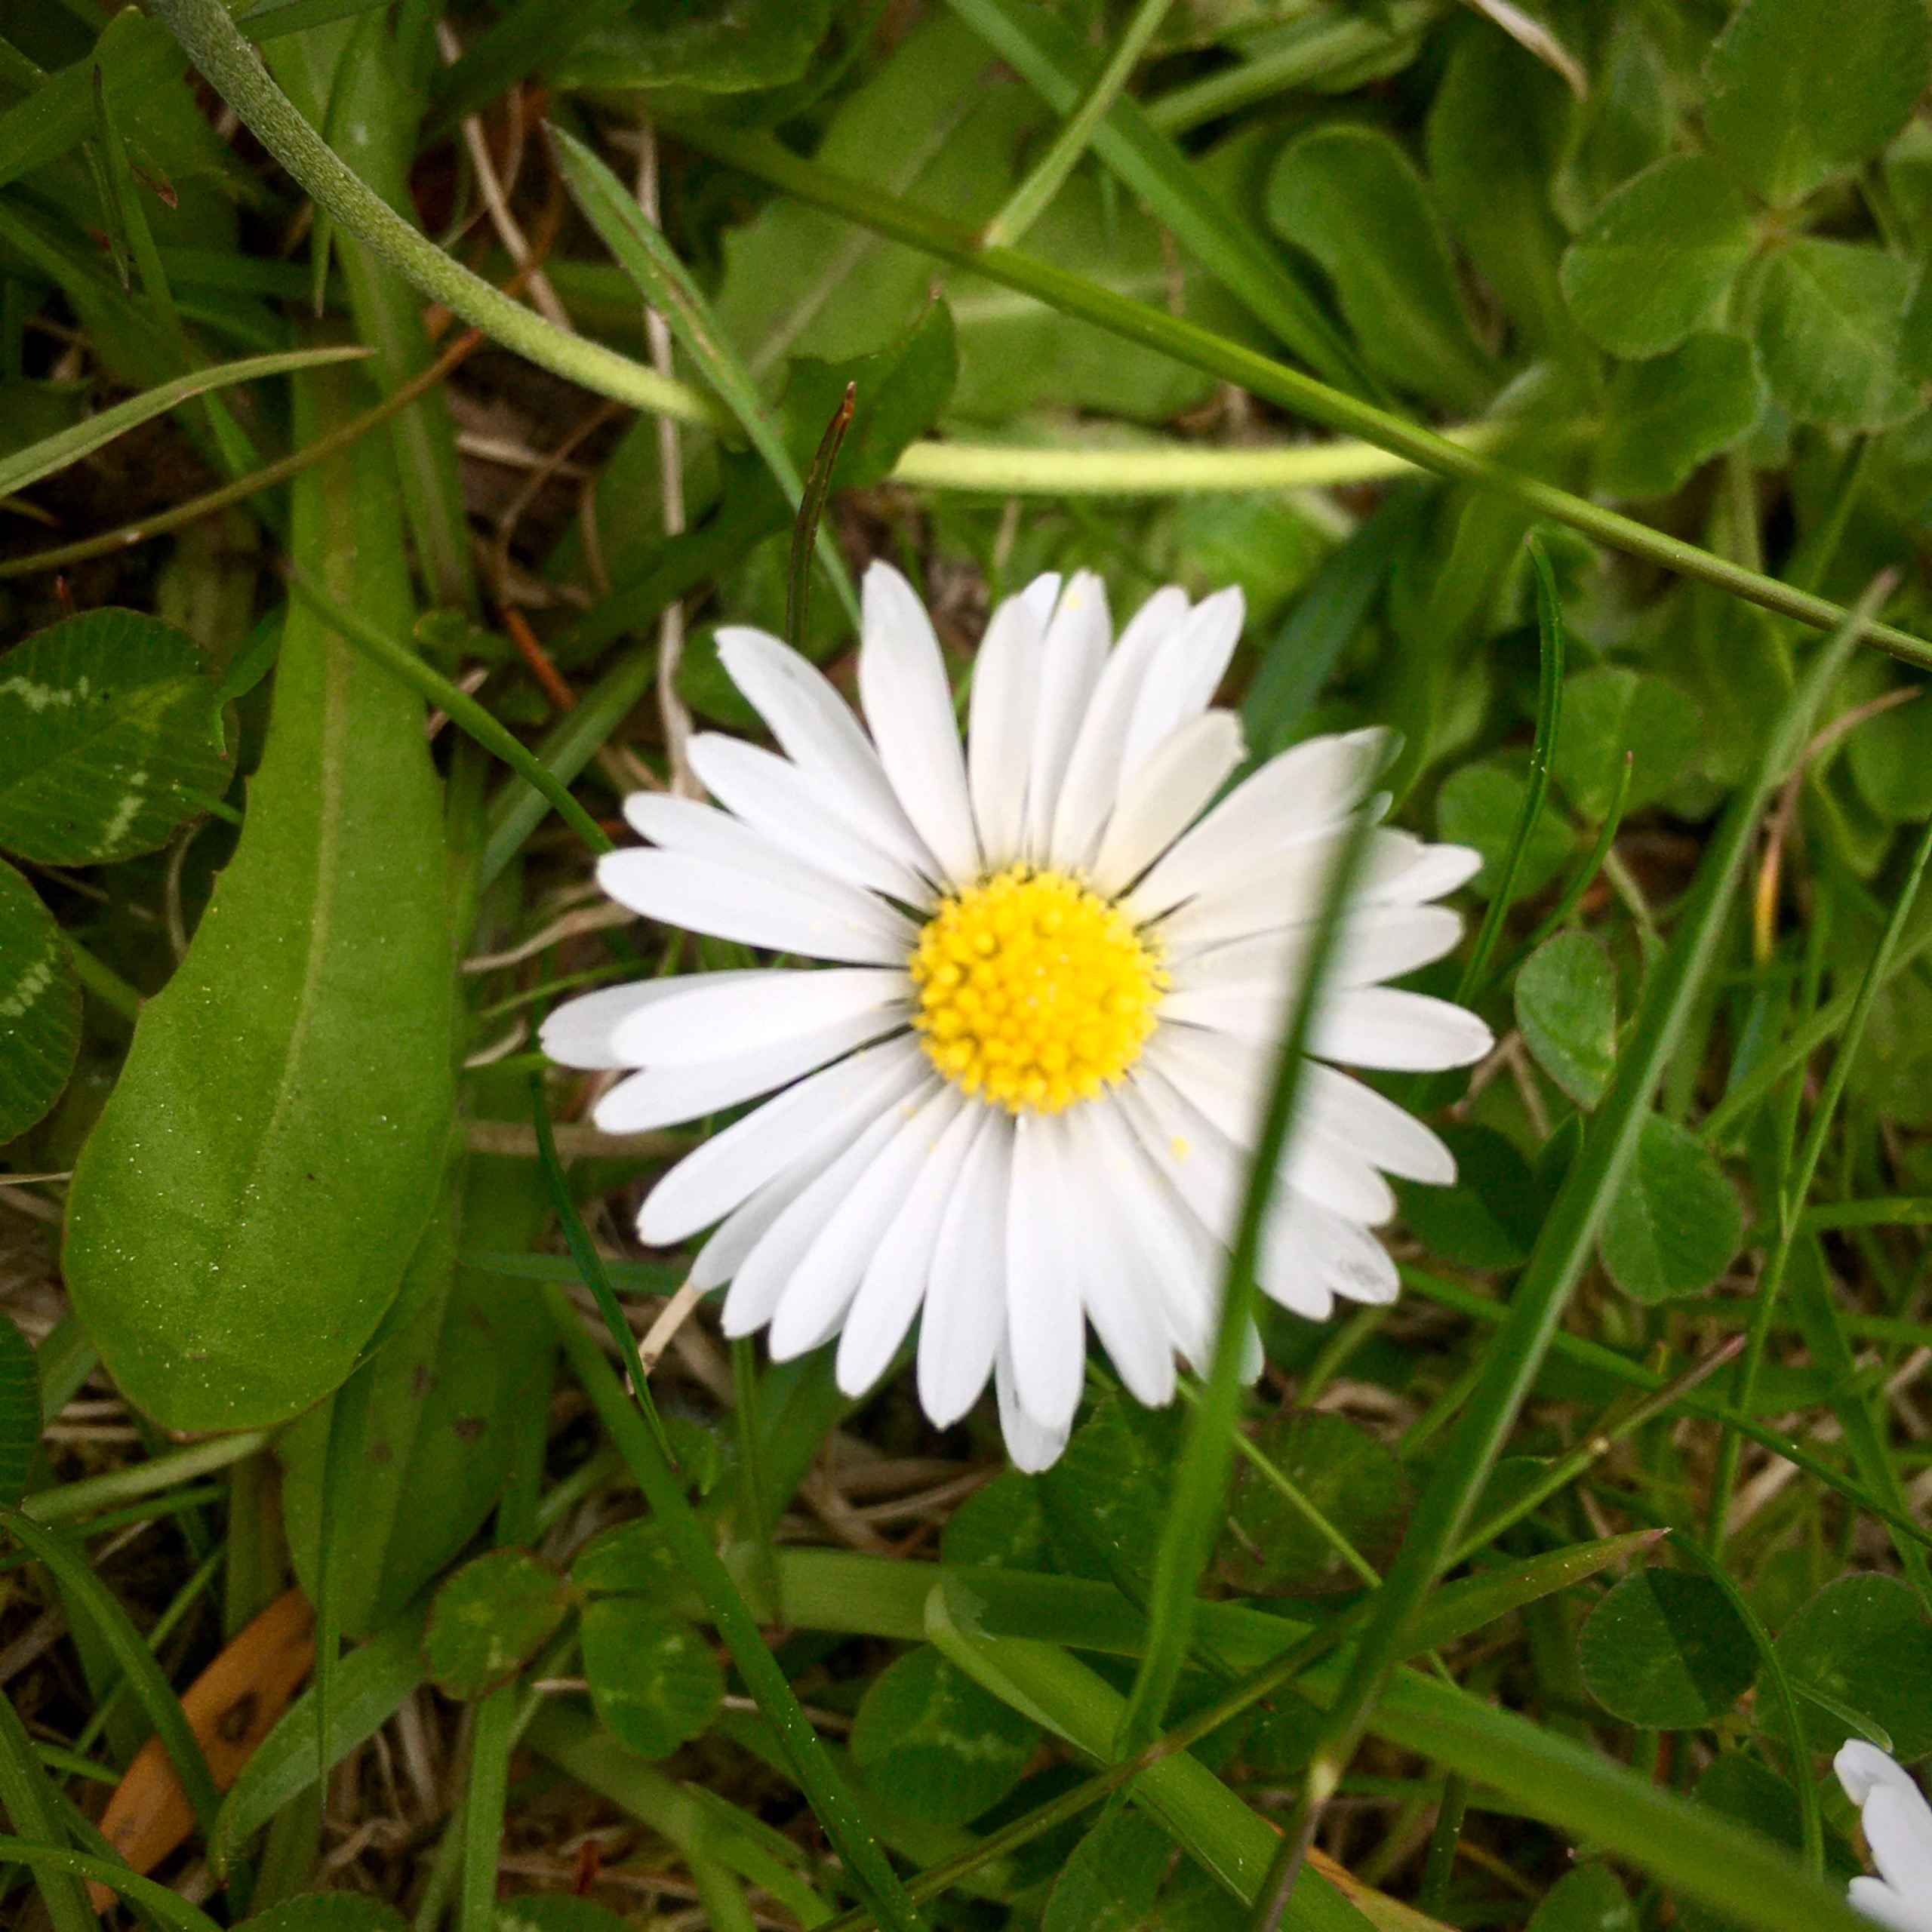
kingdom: Plantae
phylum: Tracheophyta
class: Magnoliopsida
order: Asterales
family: Asteraceae
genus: Bellis
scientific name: Bellis perennis
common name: Tusindfryd
